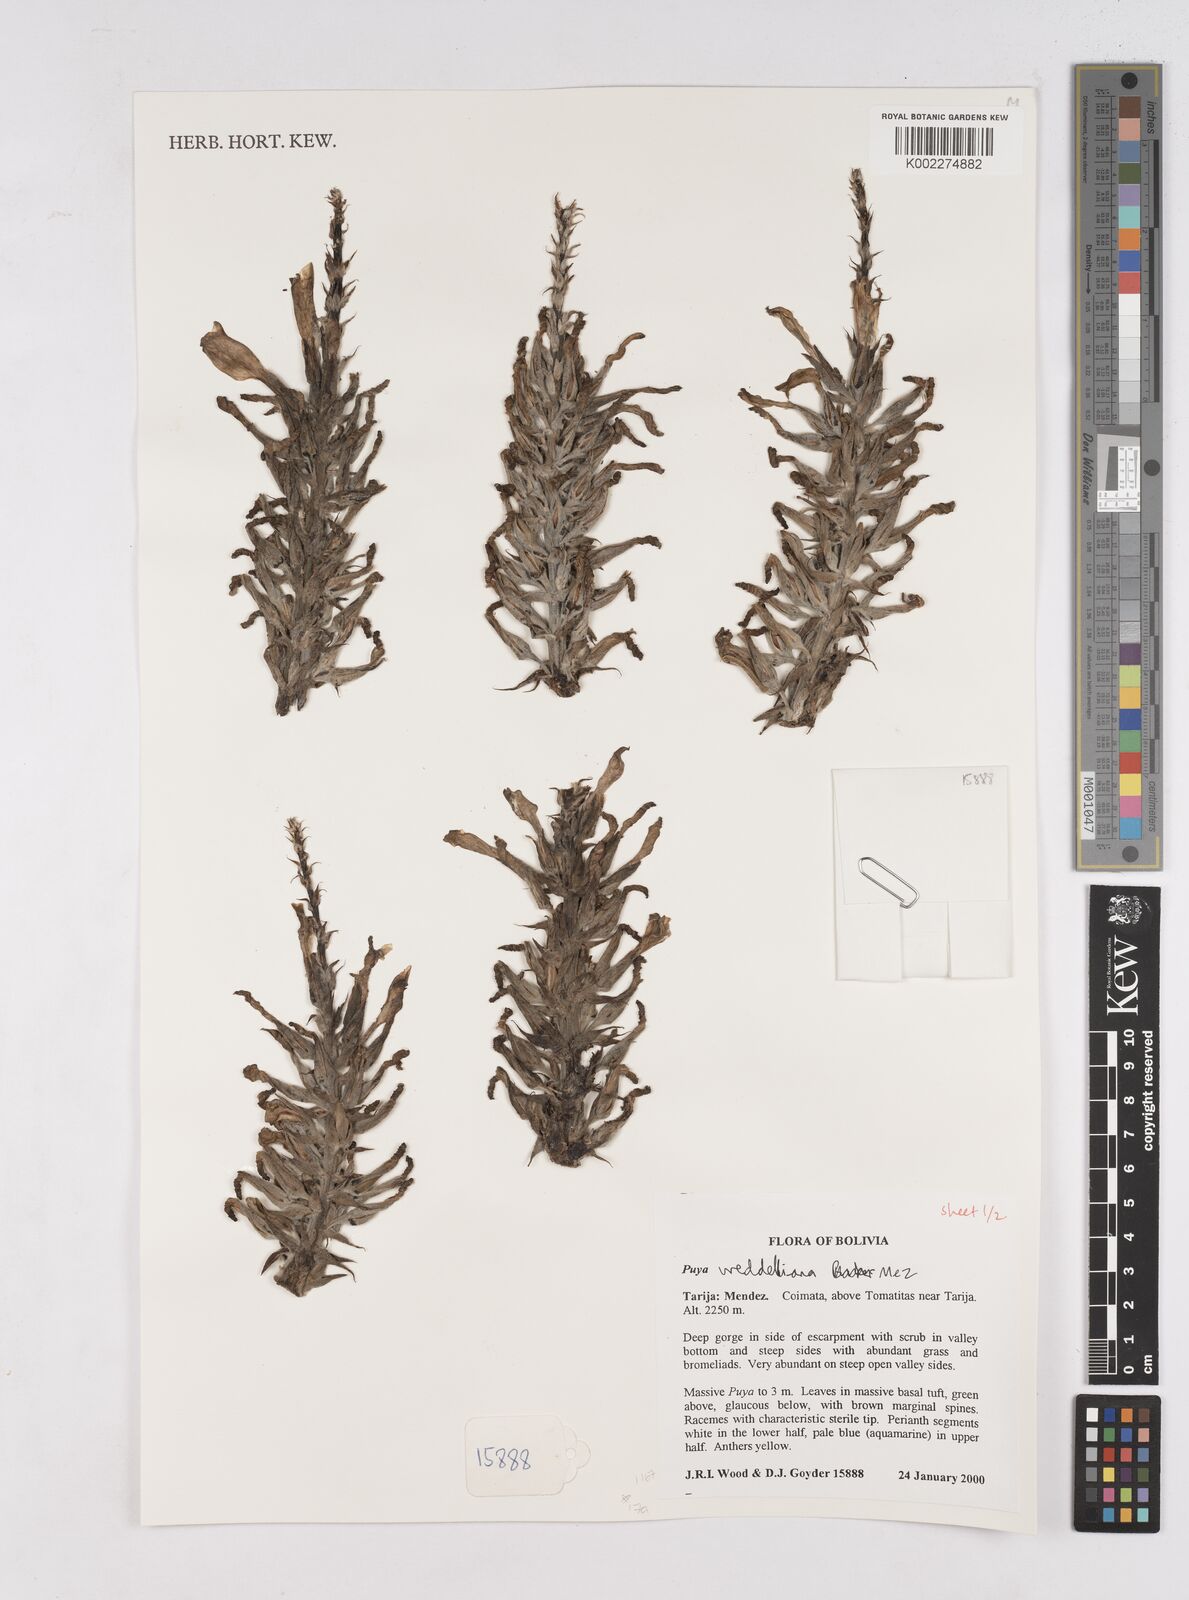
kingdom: Plantae
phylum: Tracheophyta
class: Liliopsida
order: Poales
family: Bromeliaceae
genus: Puya
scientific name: Puya weddelliana
